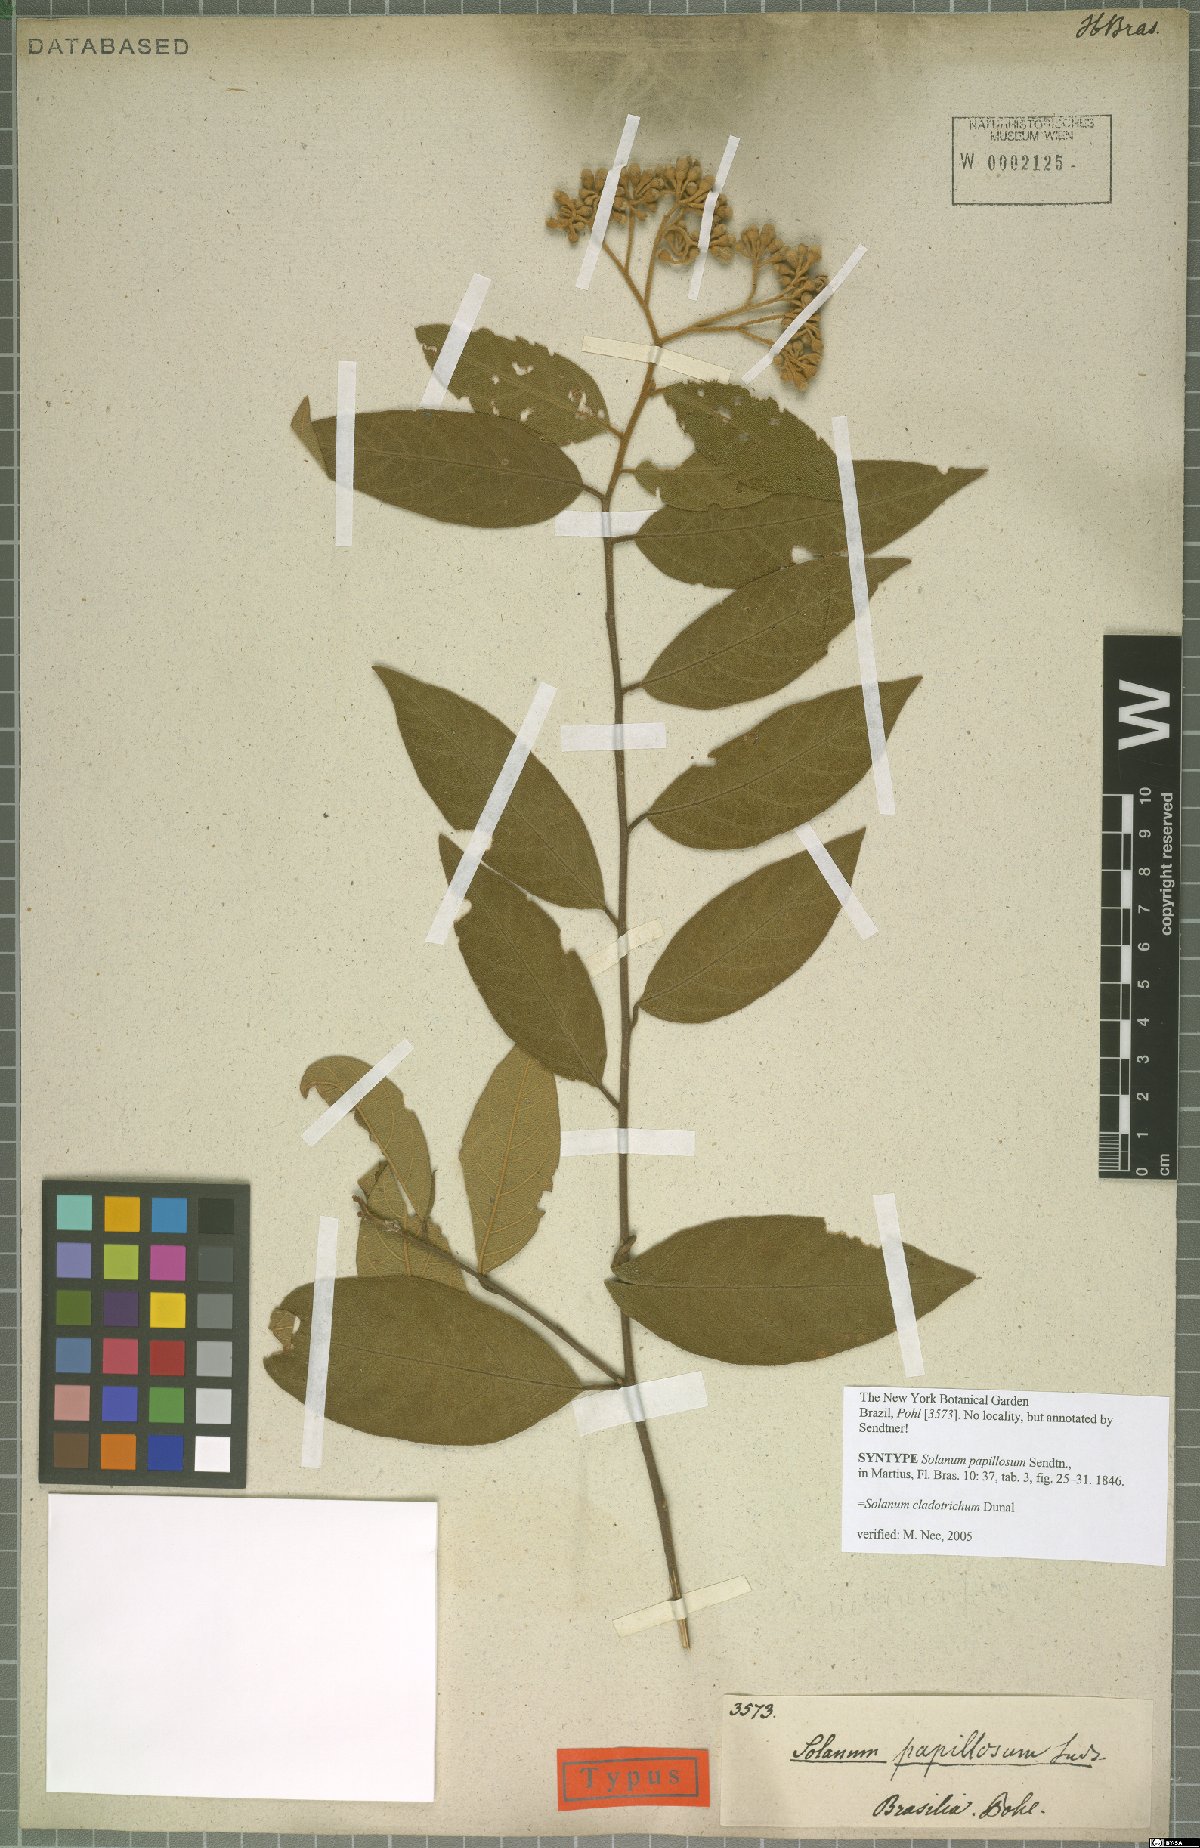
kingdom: Plantae
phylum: Tracheophyta
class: Magnoliopsida
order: Solanales
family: Solanaceae
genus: Solanum
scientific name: Solanum jussiaei
